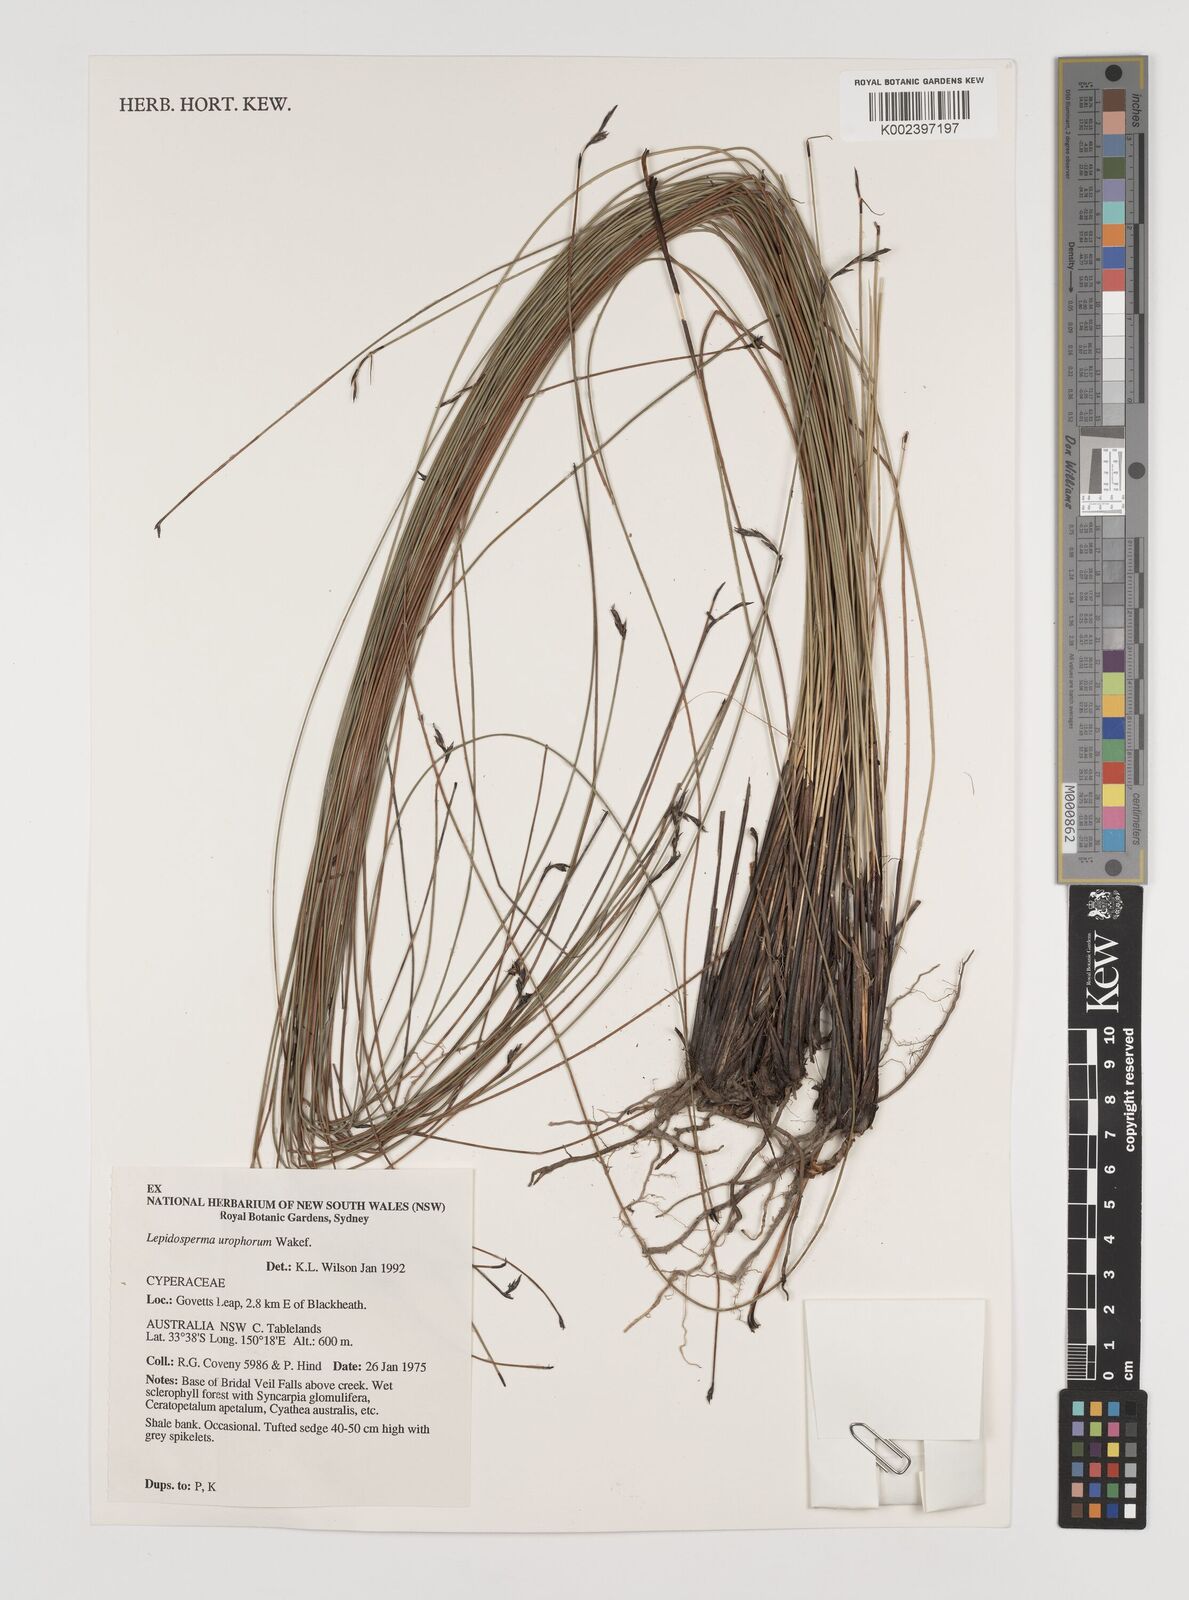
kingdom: Plantae
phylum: Tracheophyta
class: Liliopsida
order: Poales
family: Cyperaceae
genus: Lepidosperma
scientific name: Lepidosperma canescens
